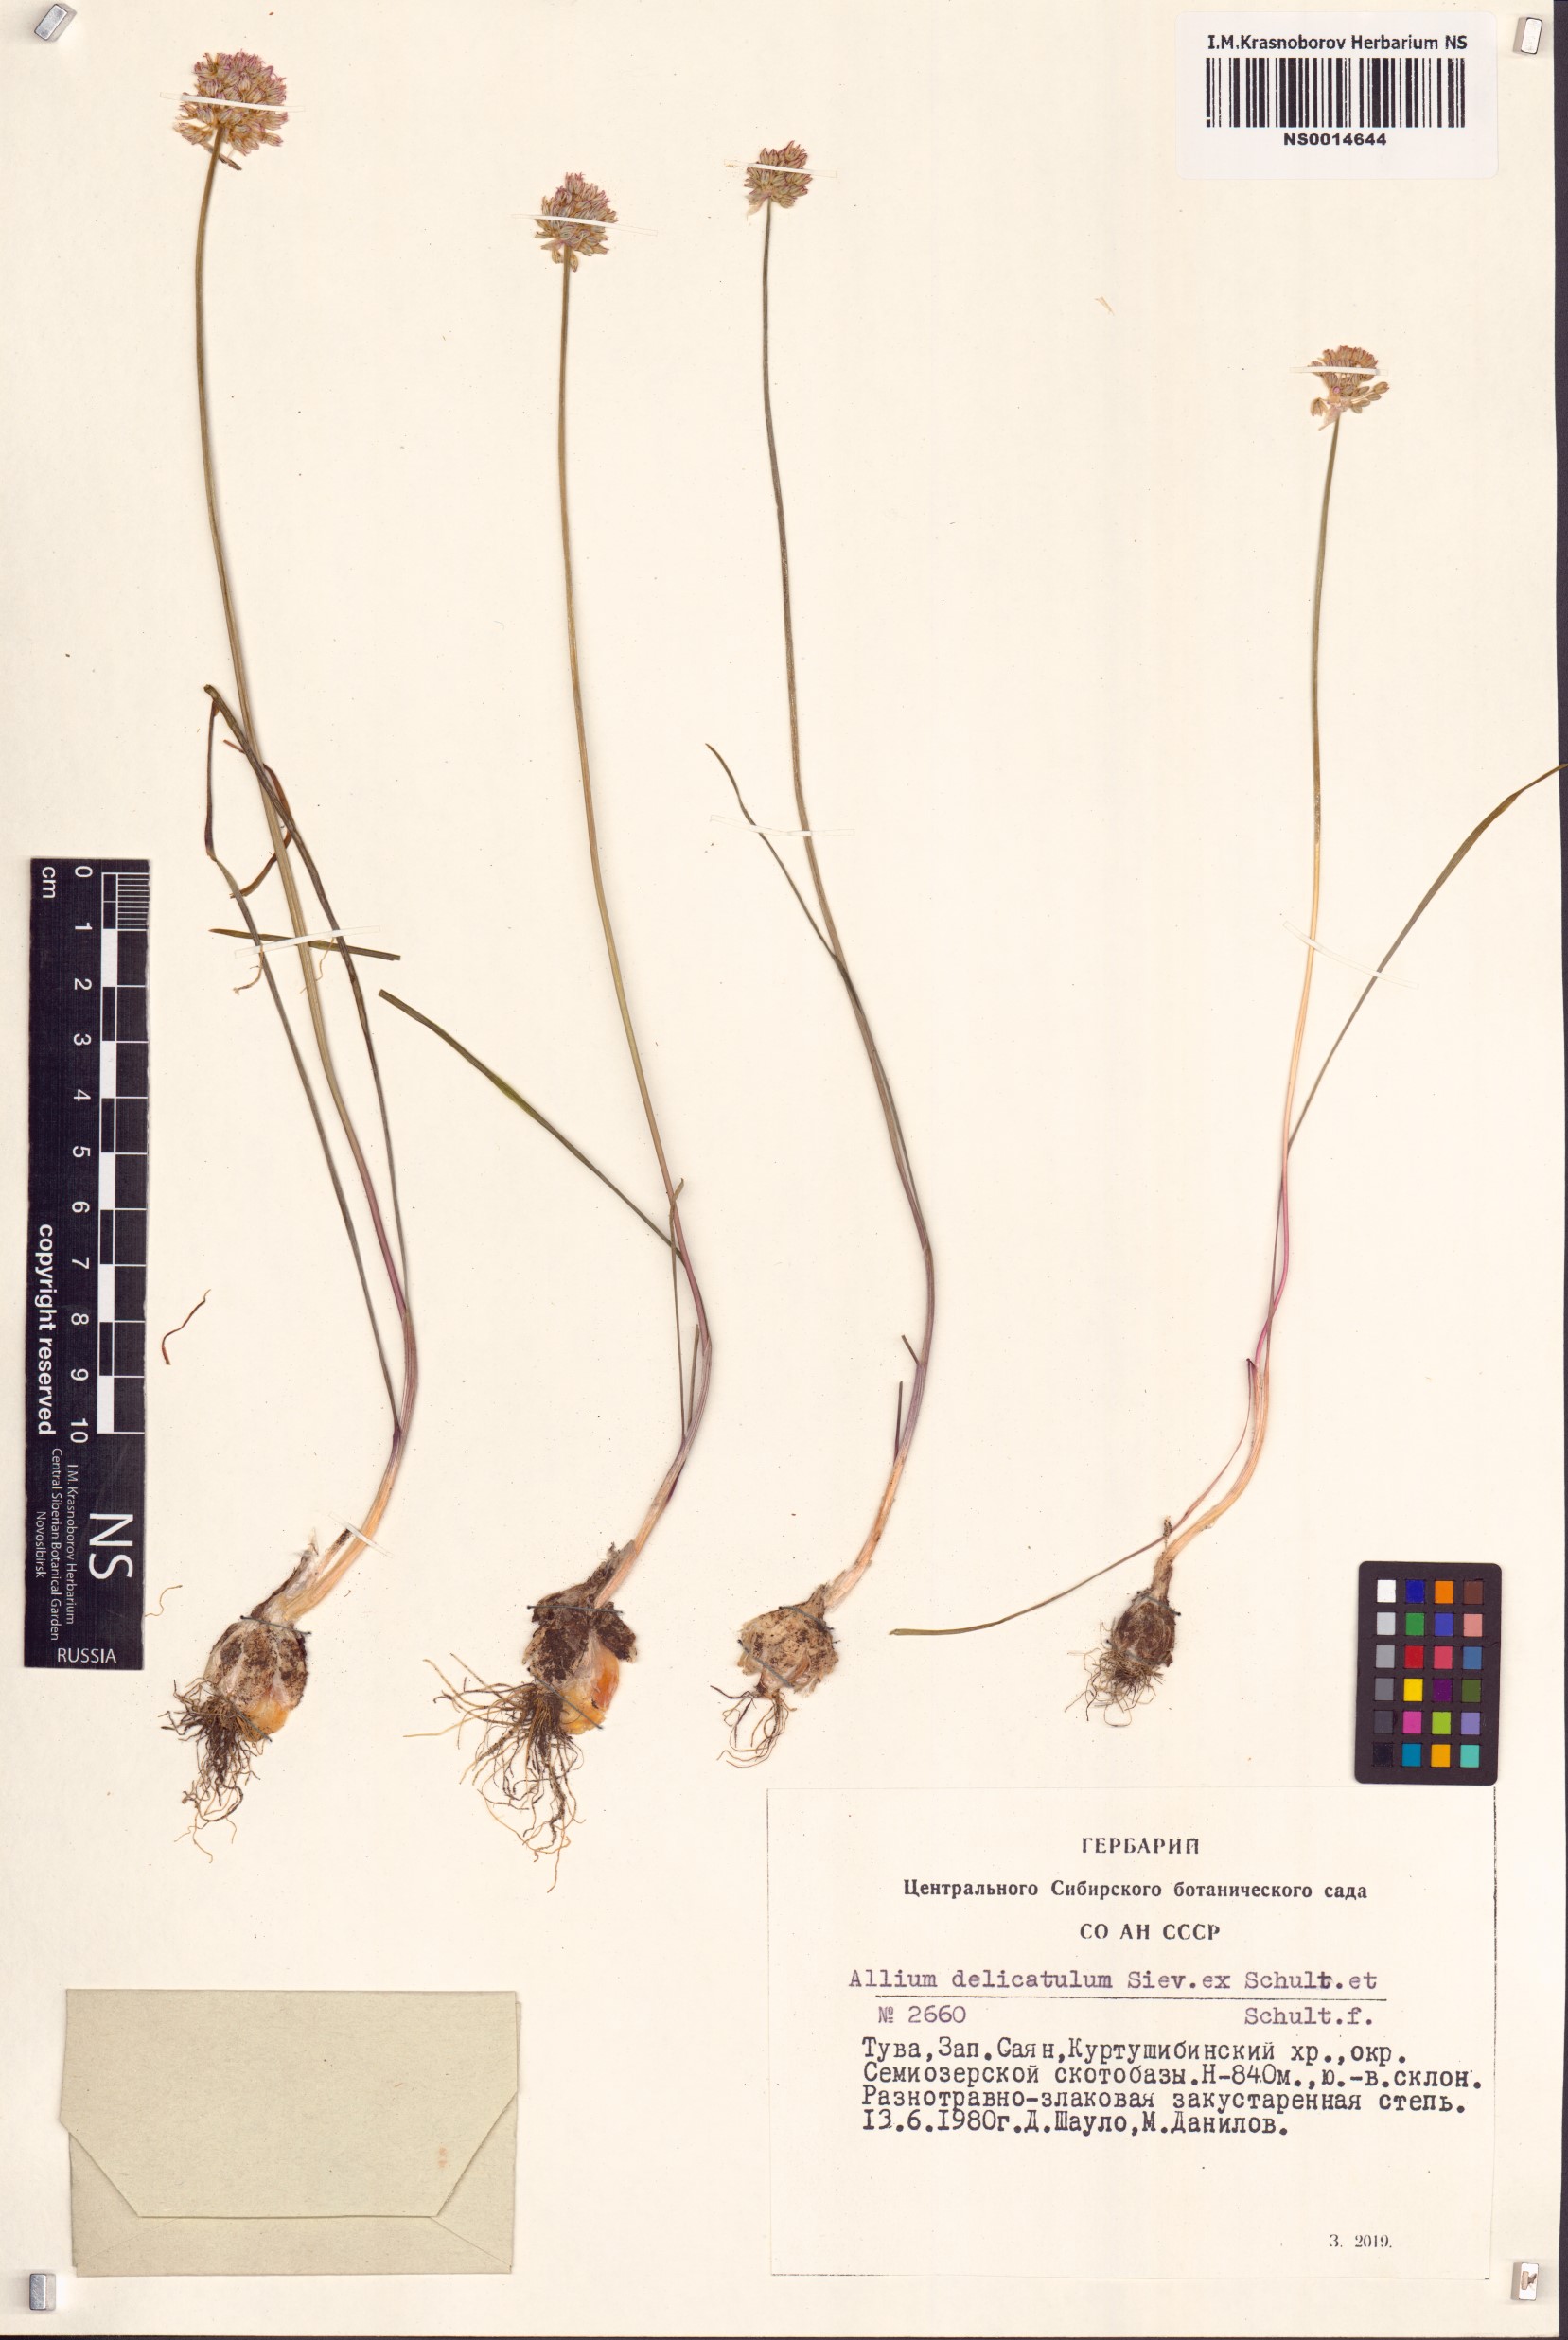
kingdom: Plantae
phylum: Tracheophyta
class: Liliopsida
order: Asparagales
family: Amaryllidaceae
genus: Allium
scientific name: Allium delicatulum
